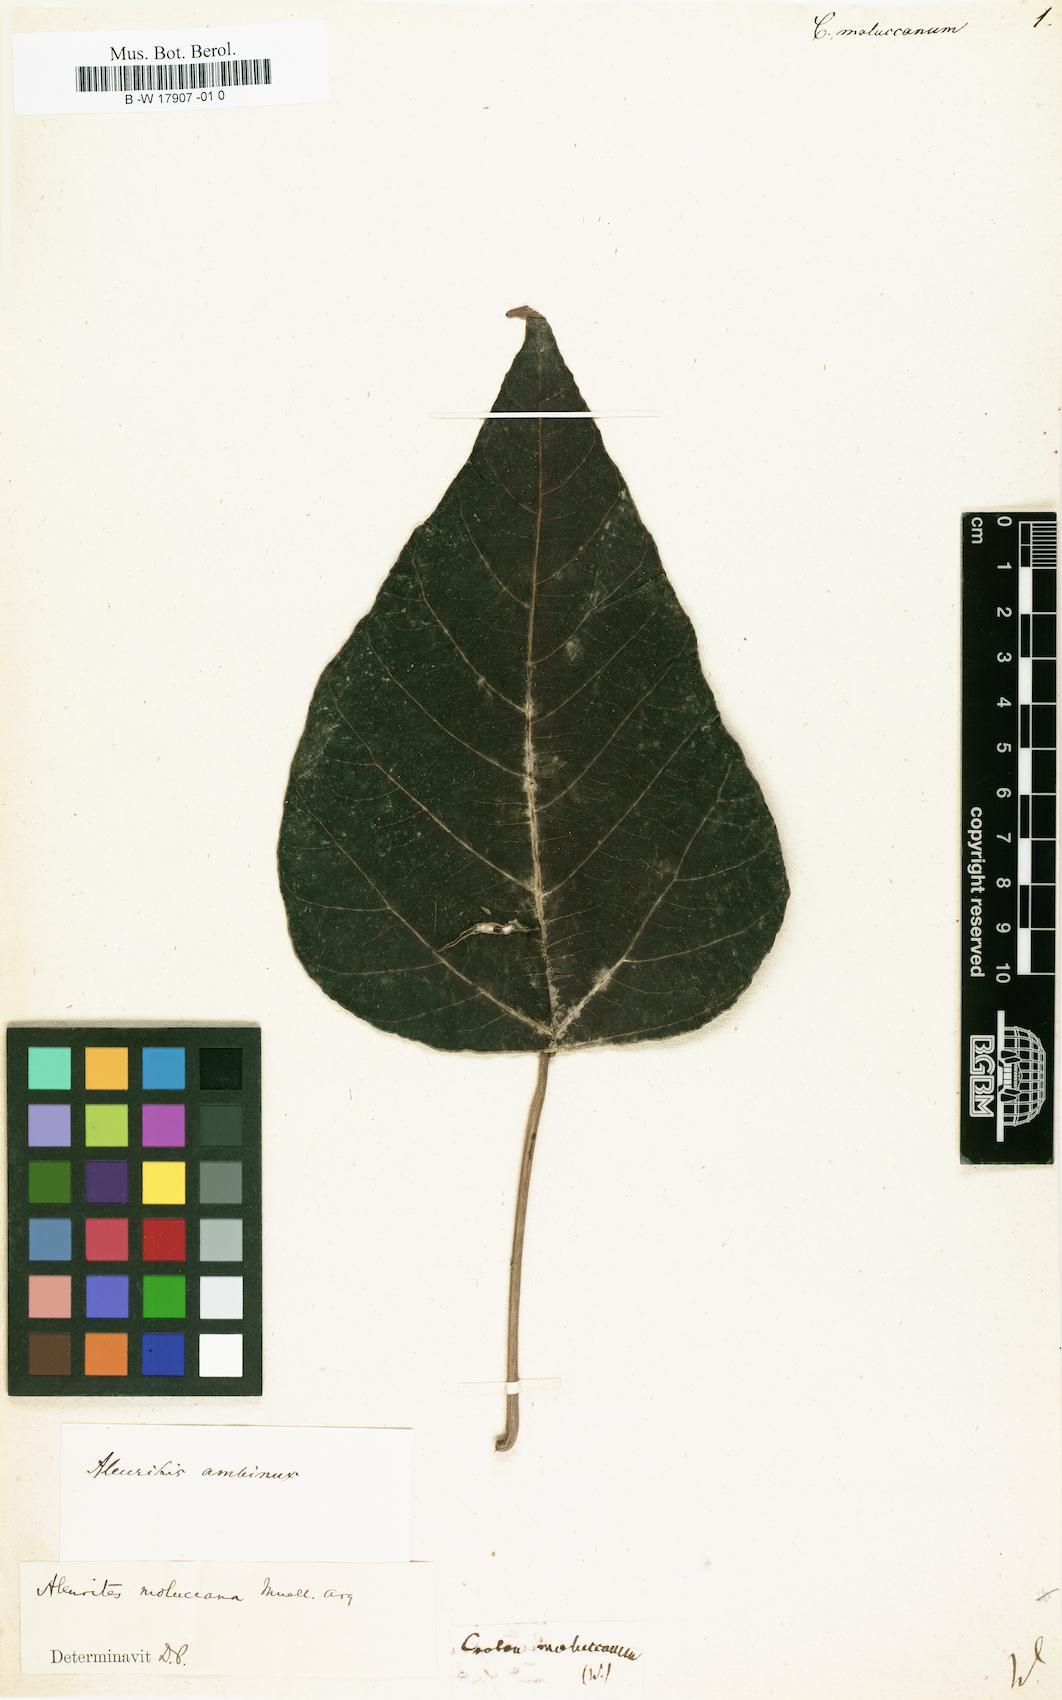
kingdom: Plantae
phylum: Tracheophyta
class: Magnoliopsida
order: Malpighiales
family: Euphorbiaceae
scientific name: Euphorbiaceae
